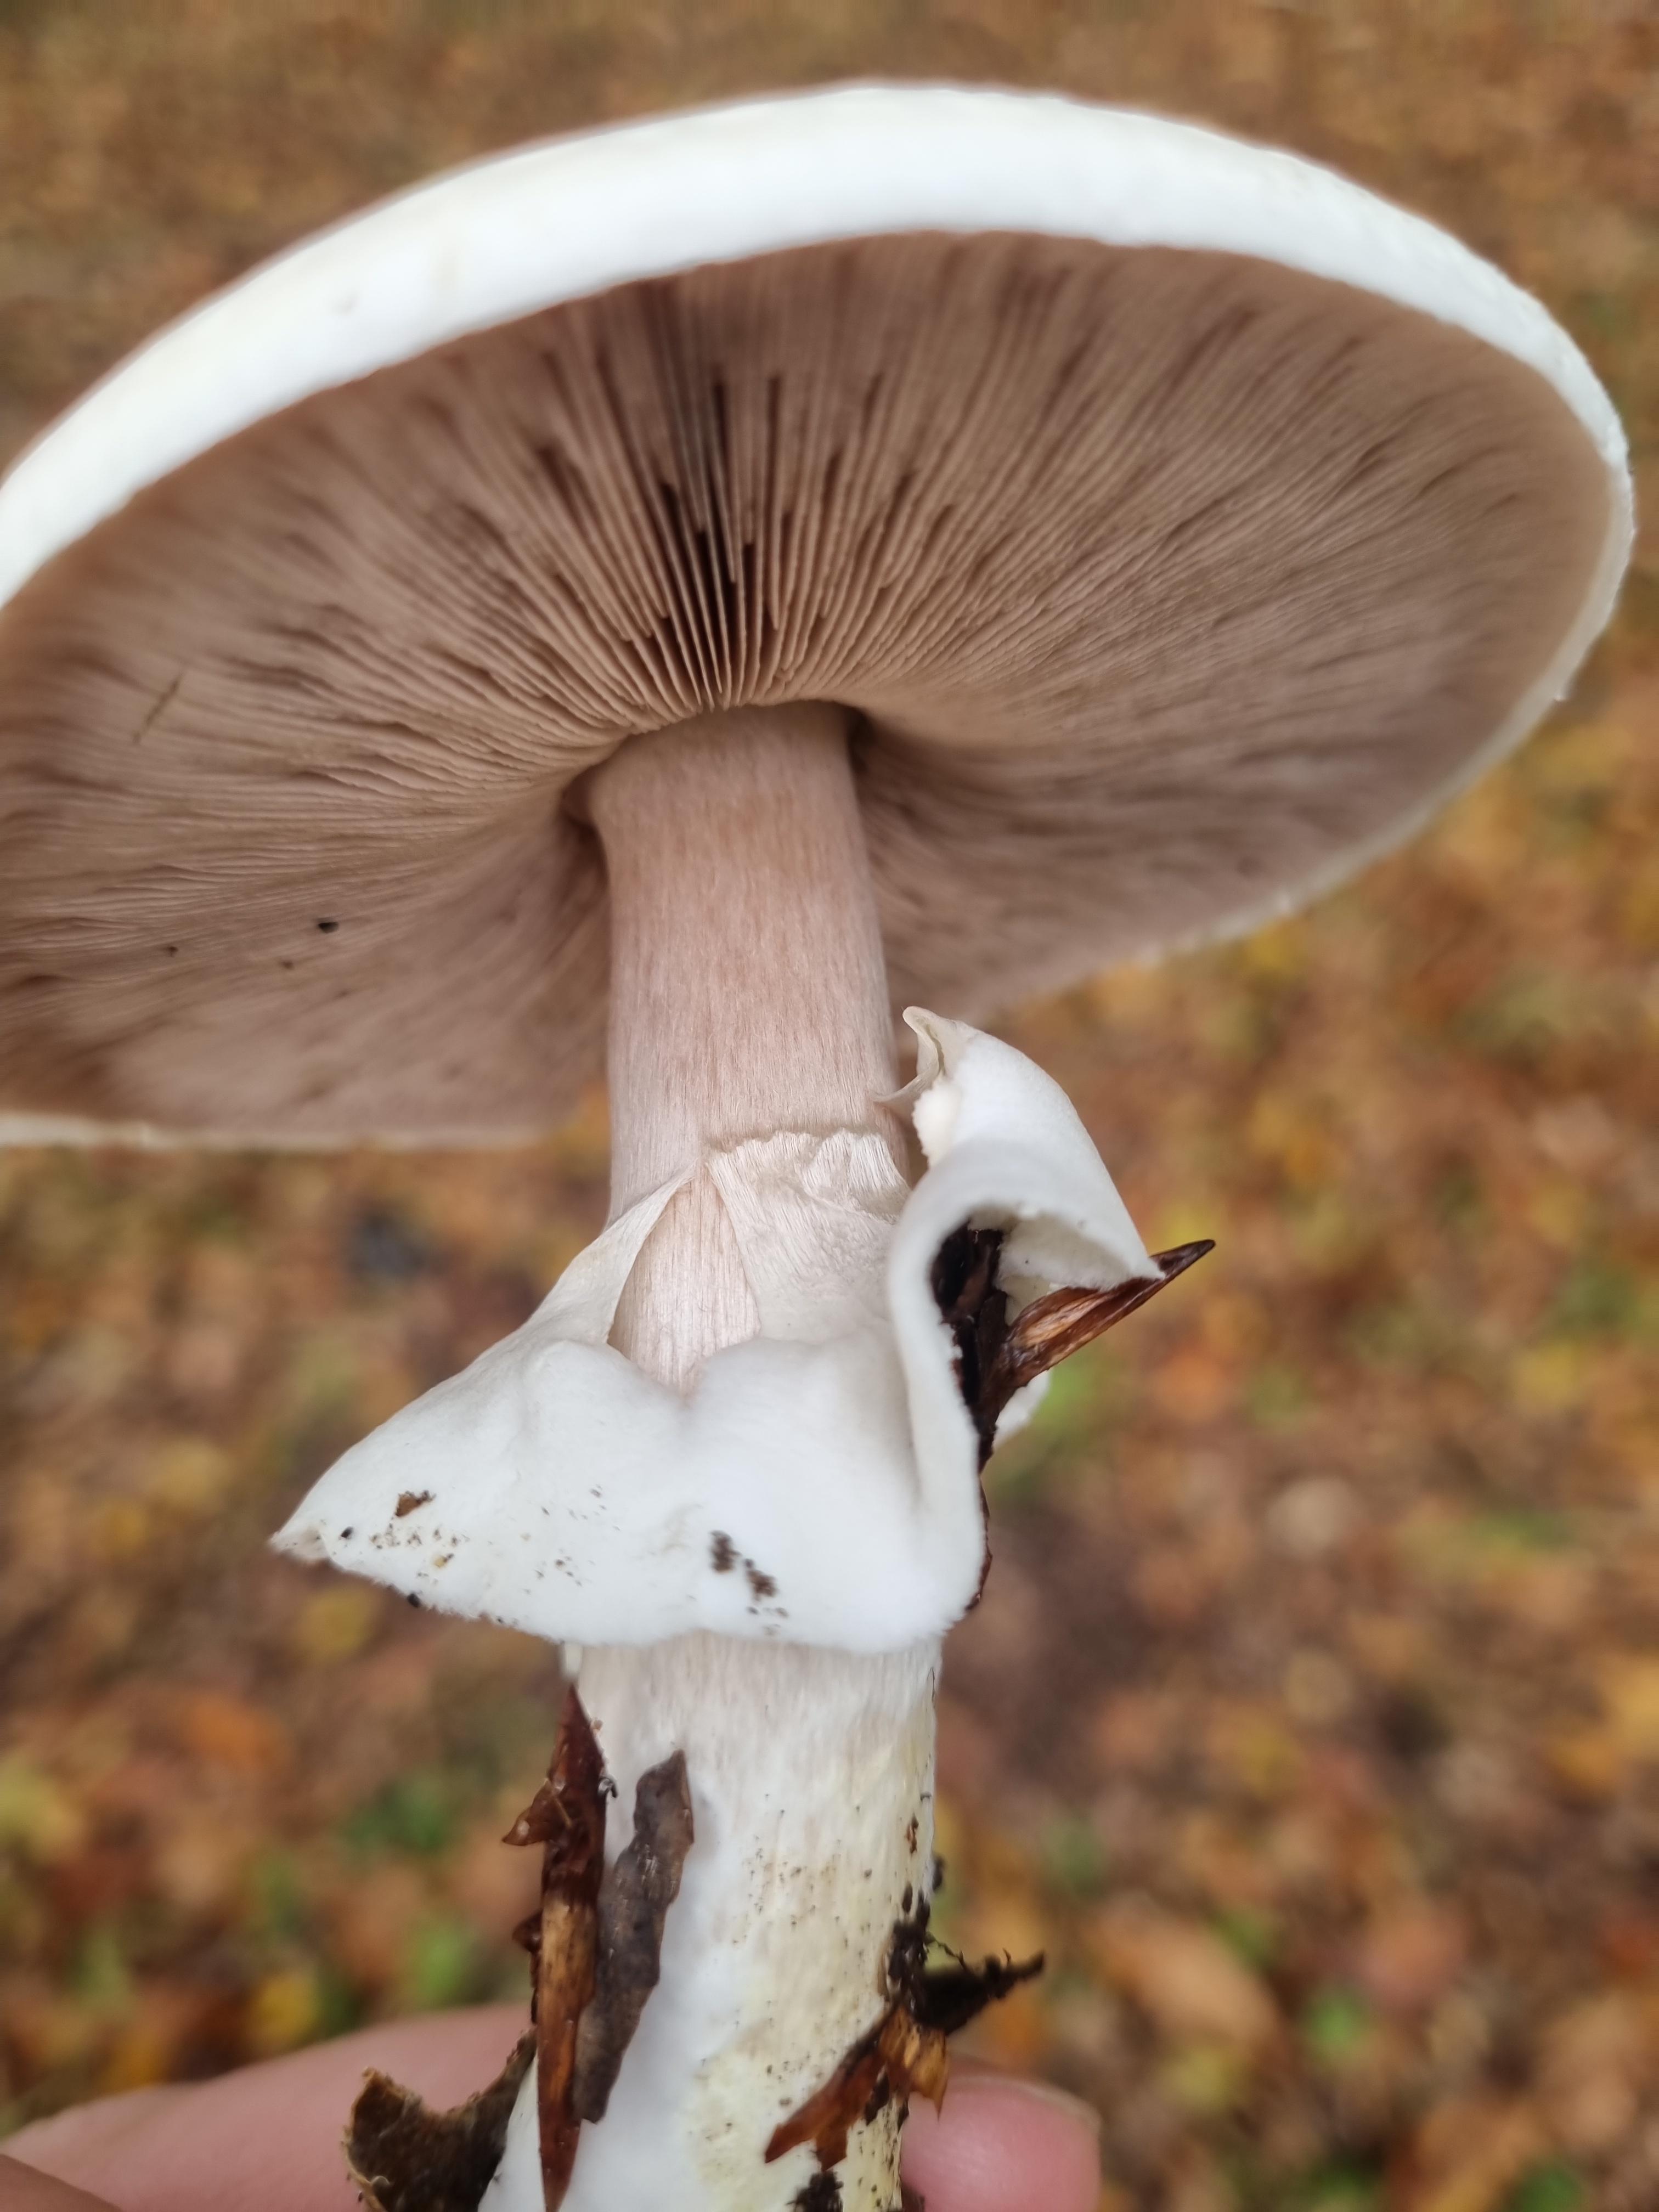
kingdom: Fungi
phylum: Basidiomycota
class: Agaricomycetes
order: Agaricales
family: Agaricaceae
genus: Agaricus
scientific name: Agaricus sylvicola
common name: gulhvid champignon
